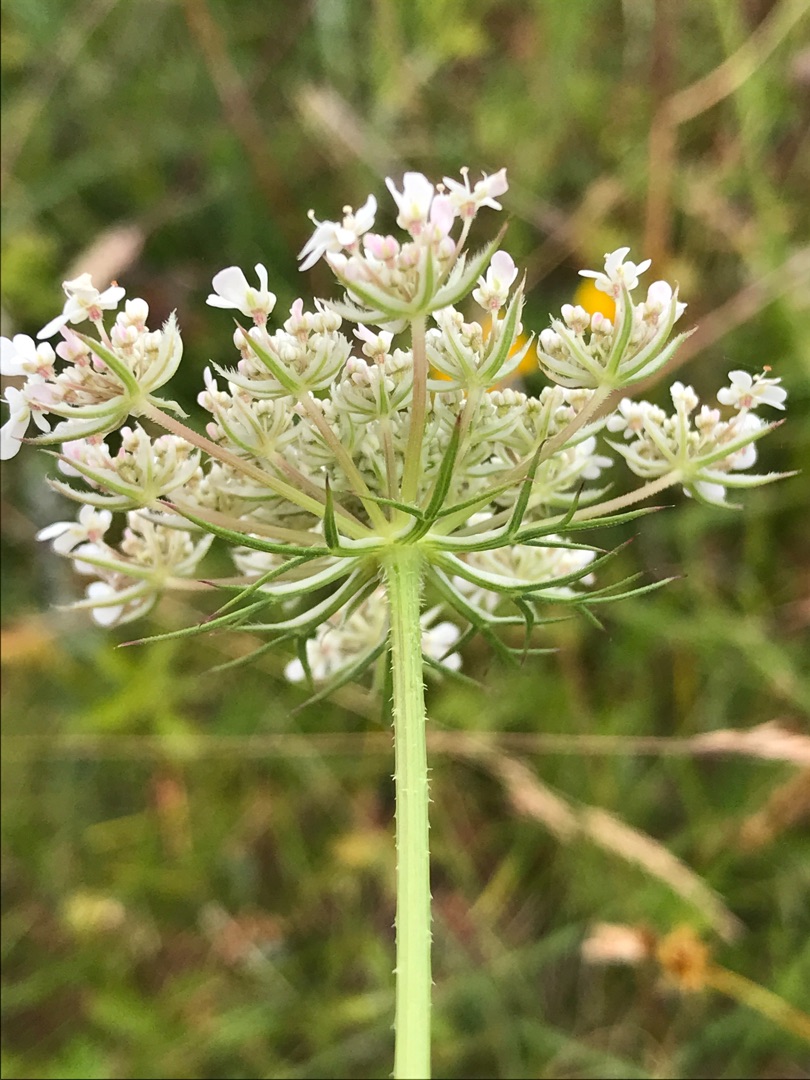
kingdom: Plantae
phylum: Tracheophyta
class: Magnoliopsida
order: Apiales
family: Apiaceae
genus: Daucus
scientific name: Daucus carota
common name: Vild gulerod
